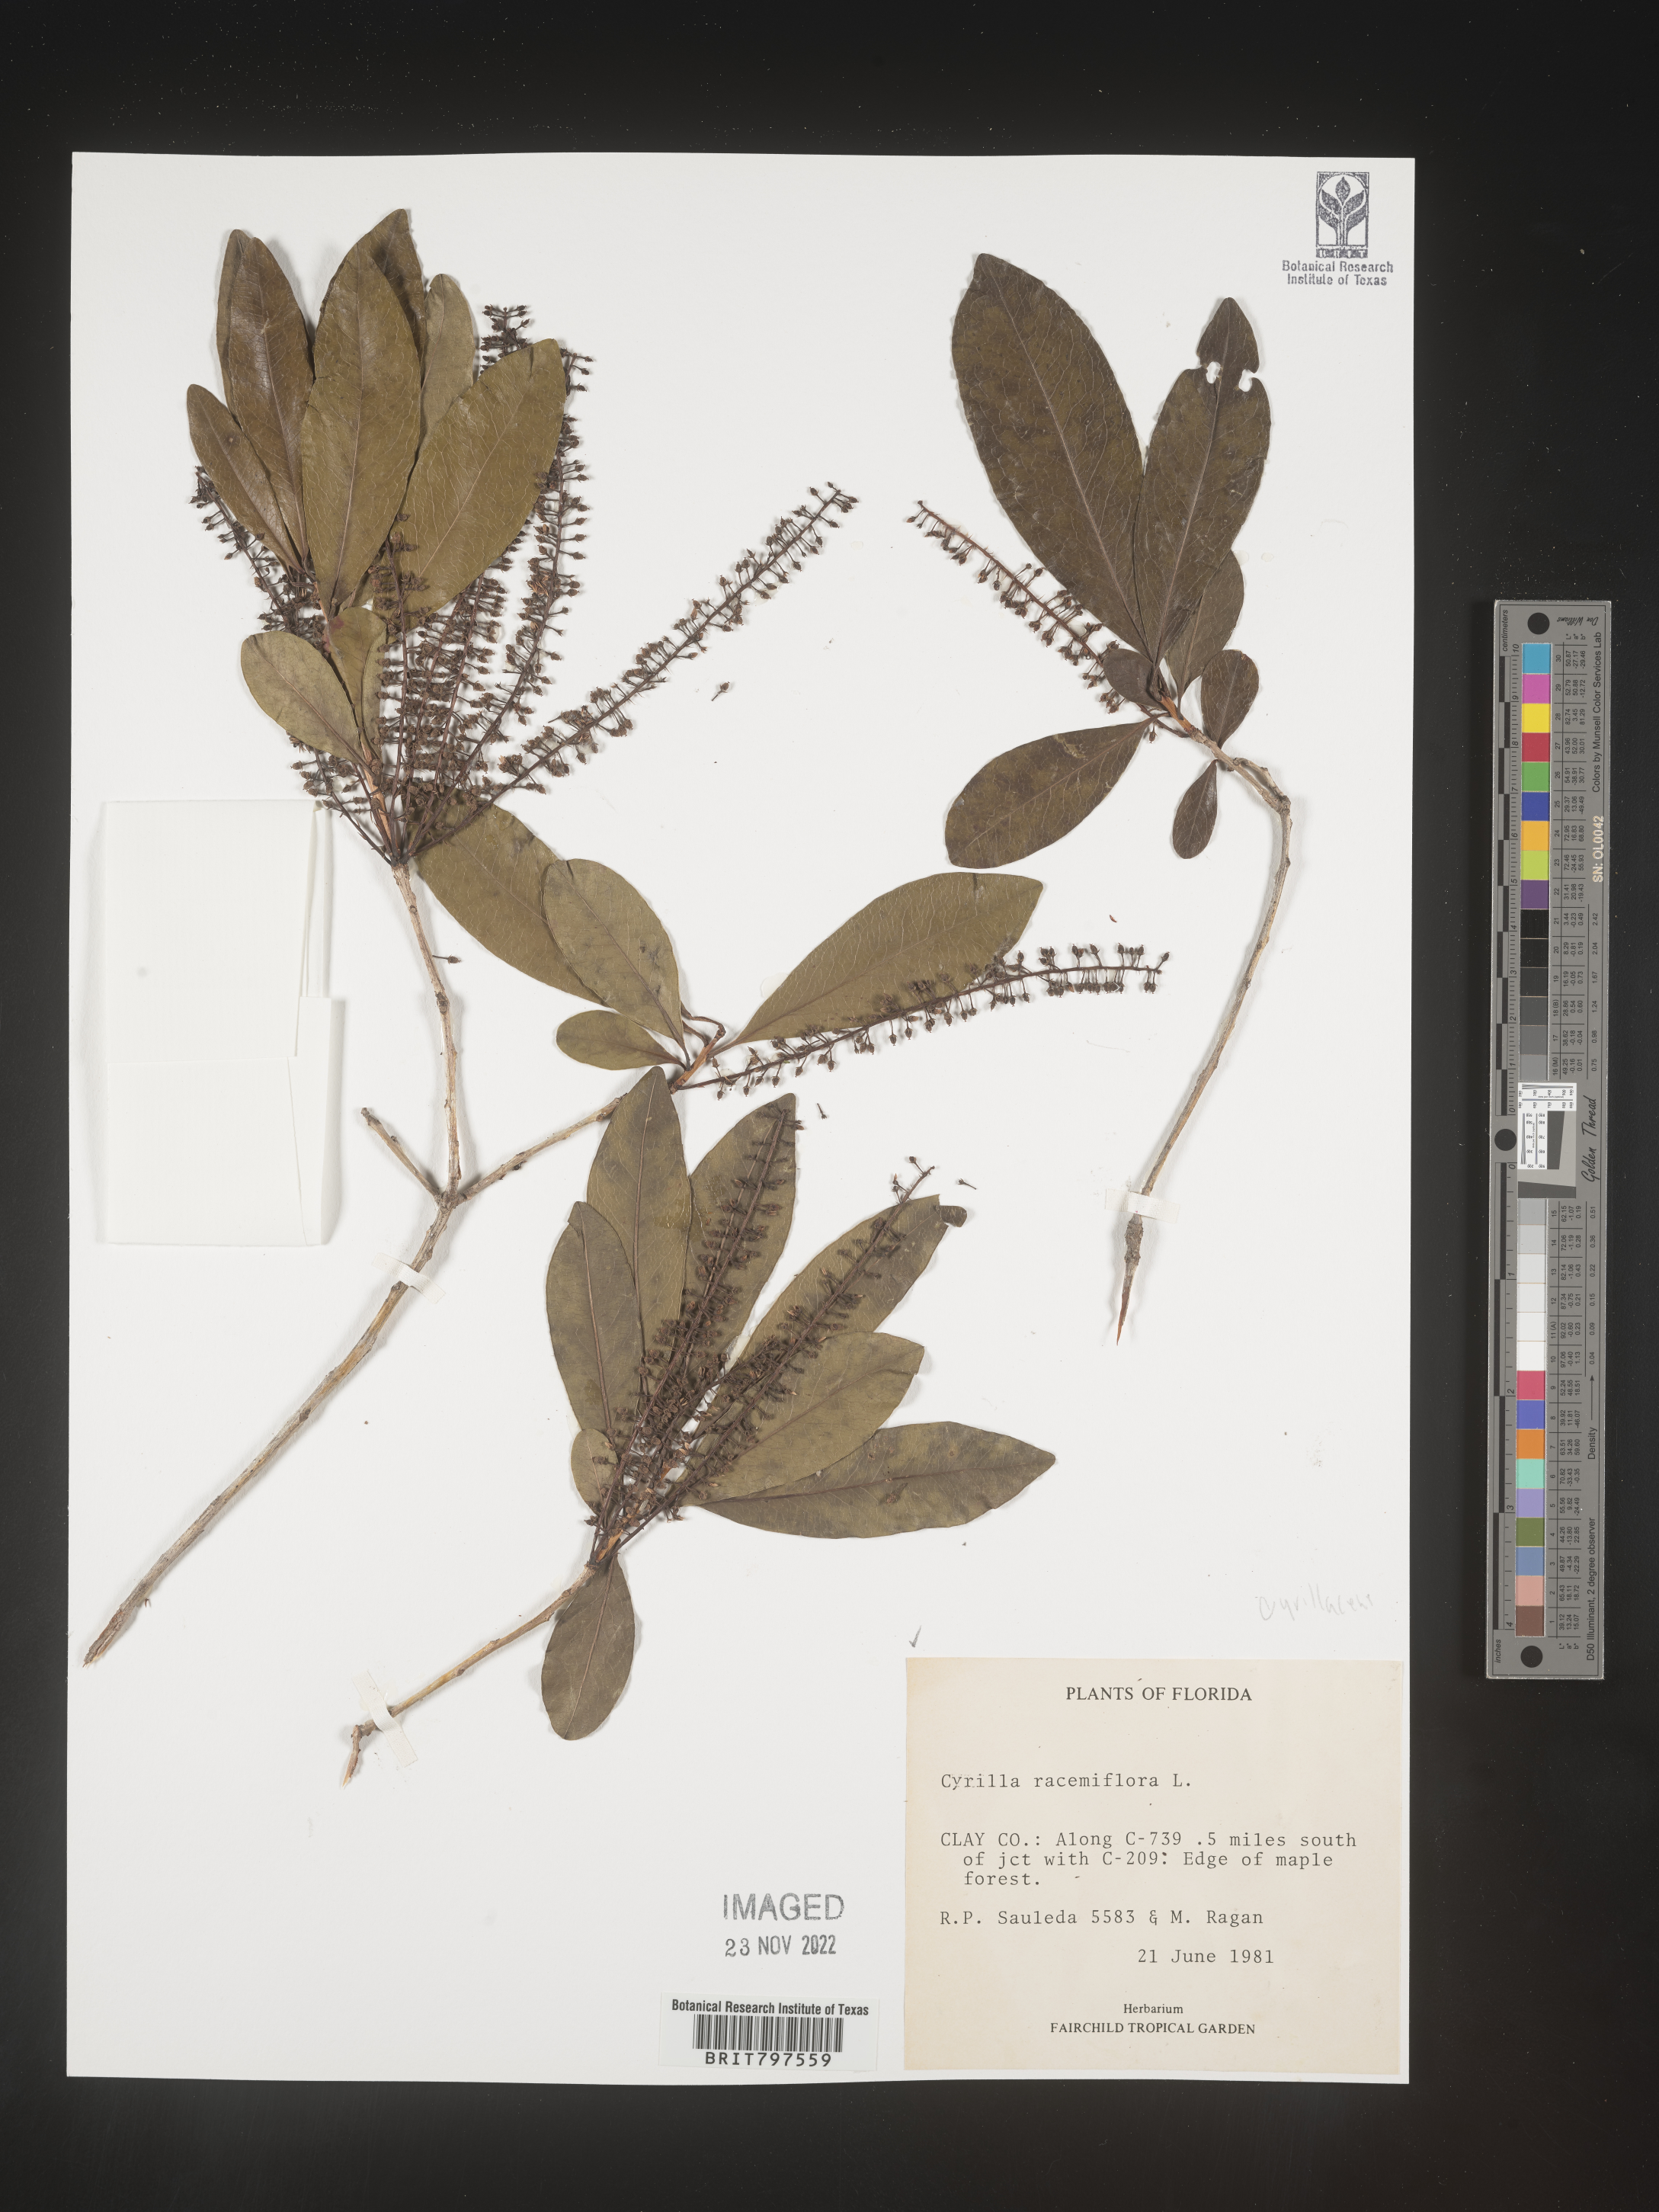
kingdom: Plantae
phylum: Tracheophyta
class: Magnoliopsida
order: Ericales
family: Cyrillaceae
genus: Cyrilla
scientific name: Cyrilla racemiflora
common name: Black titi
